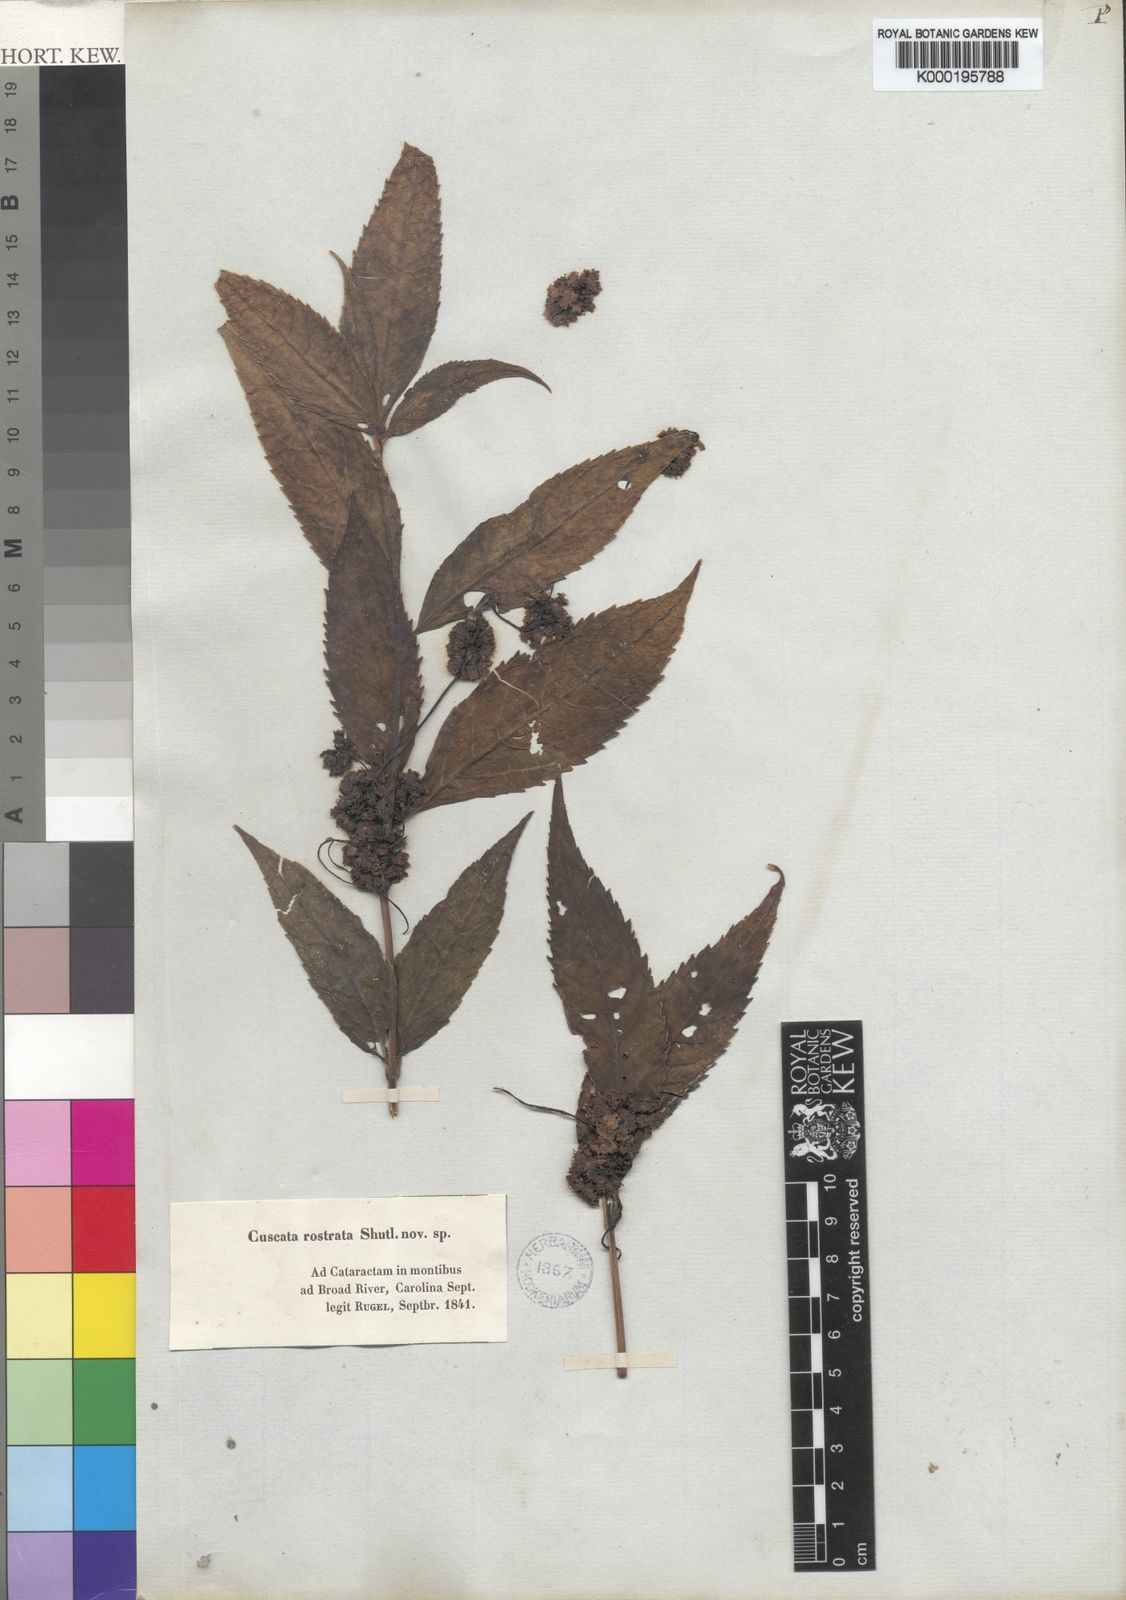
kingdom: Plantae
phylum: Tracheophyta
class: Magnoliopsida
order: Solanales
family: Convolvulaceae
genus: Cuscuta
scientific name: Cuscuta rostrata
